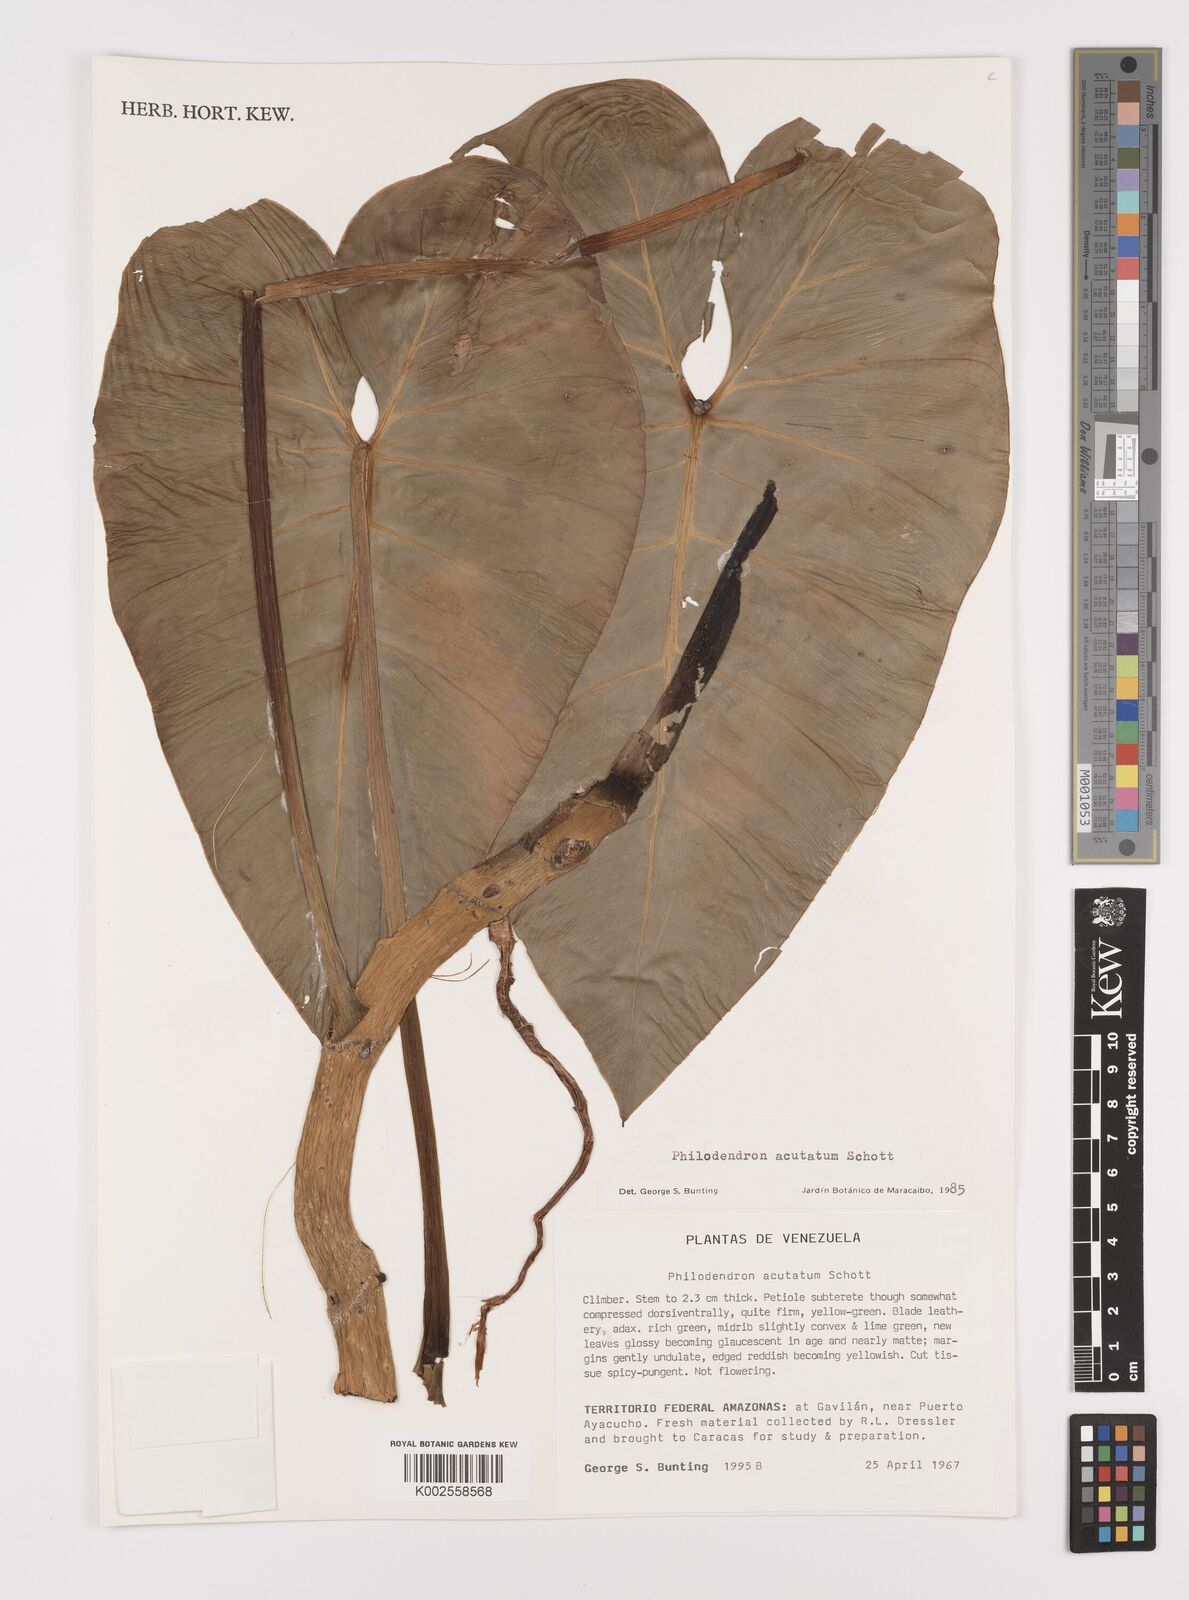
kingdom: Plantae
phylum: Tracheophyta
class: Liliopsida
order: Alismatales
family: Araceae
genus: Philodendron
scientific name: Philodendron quinquenervium
